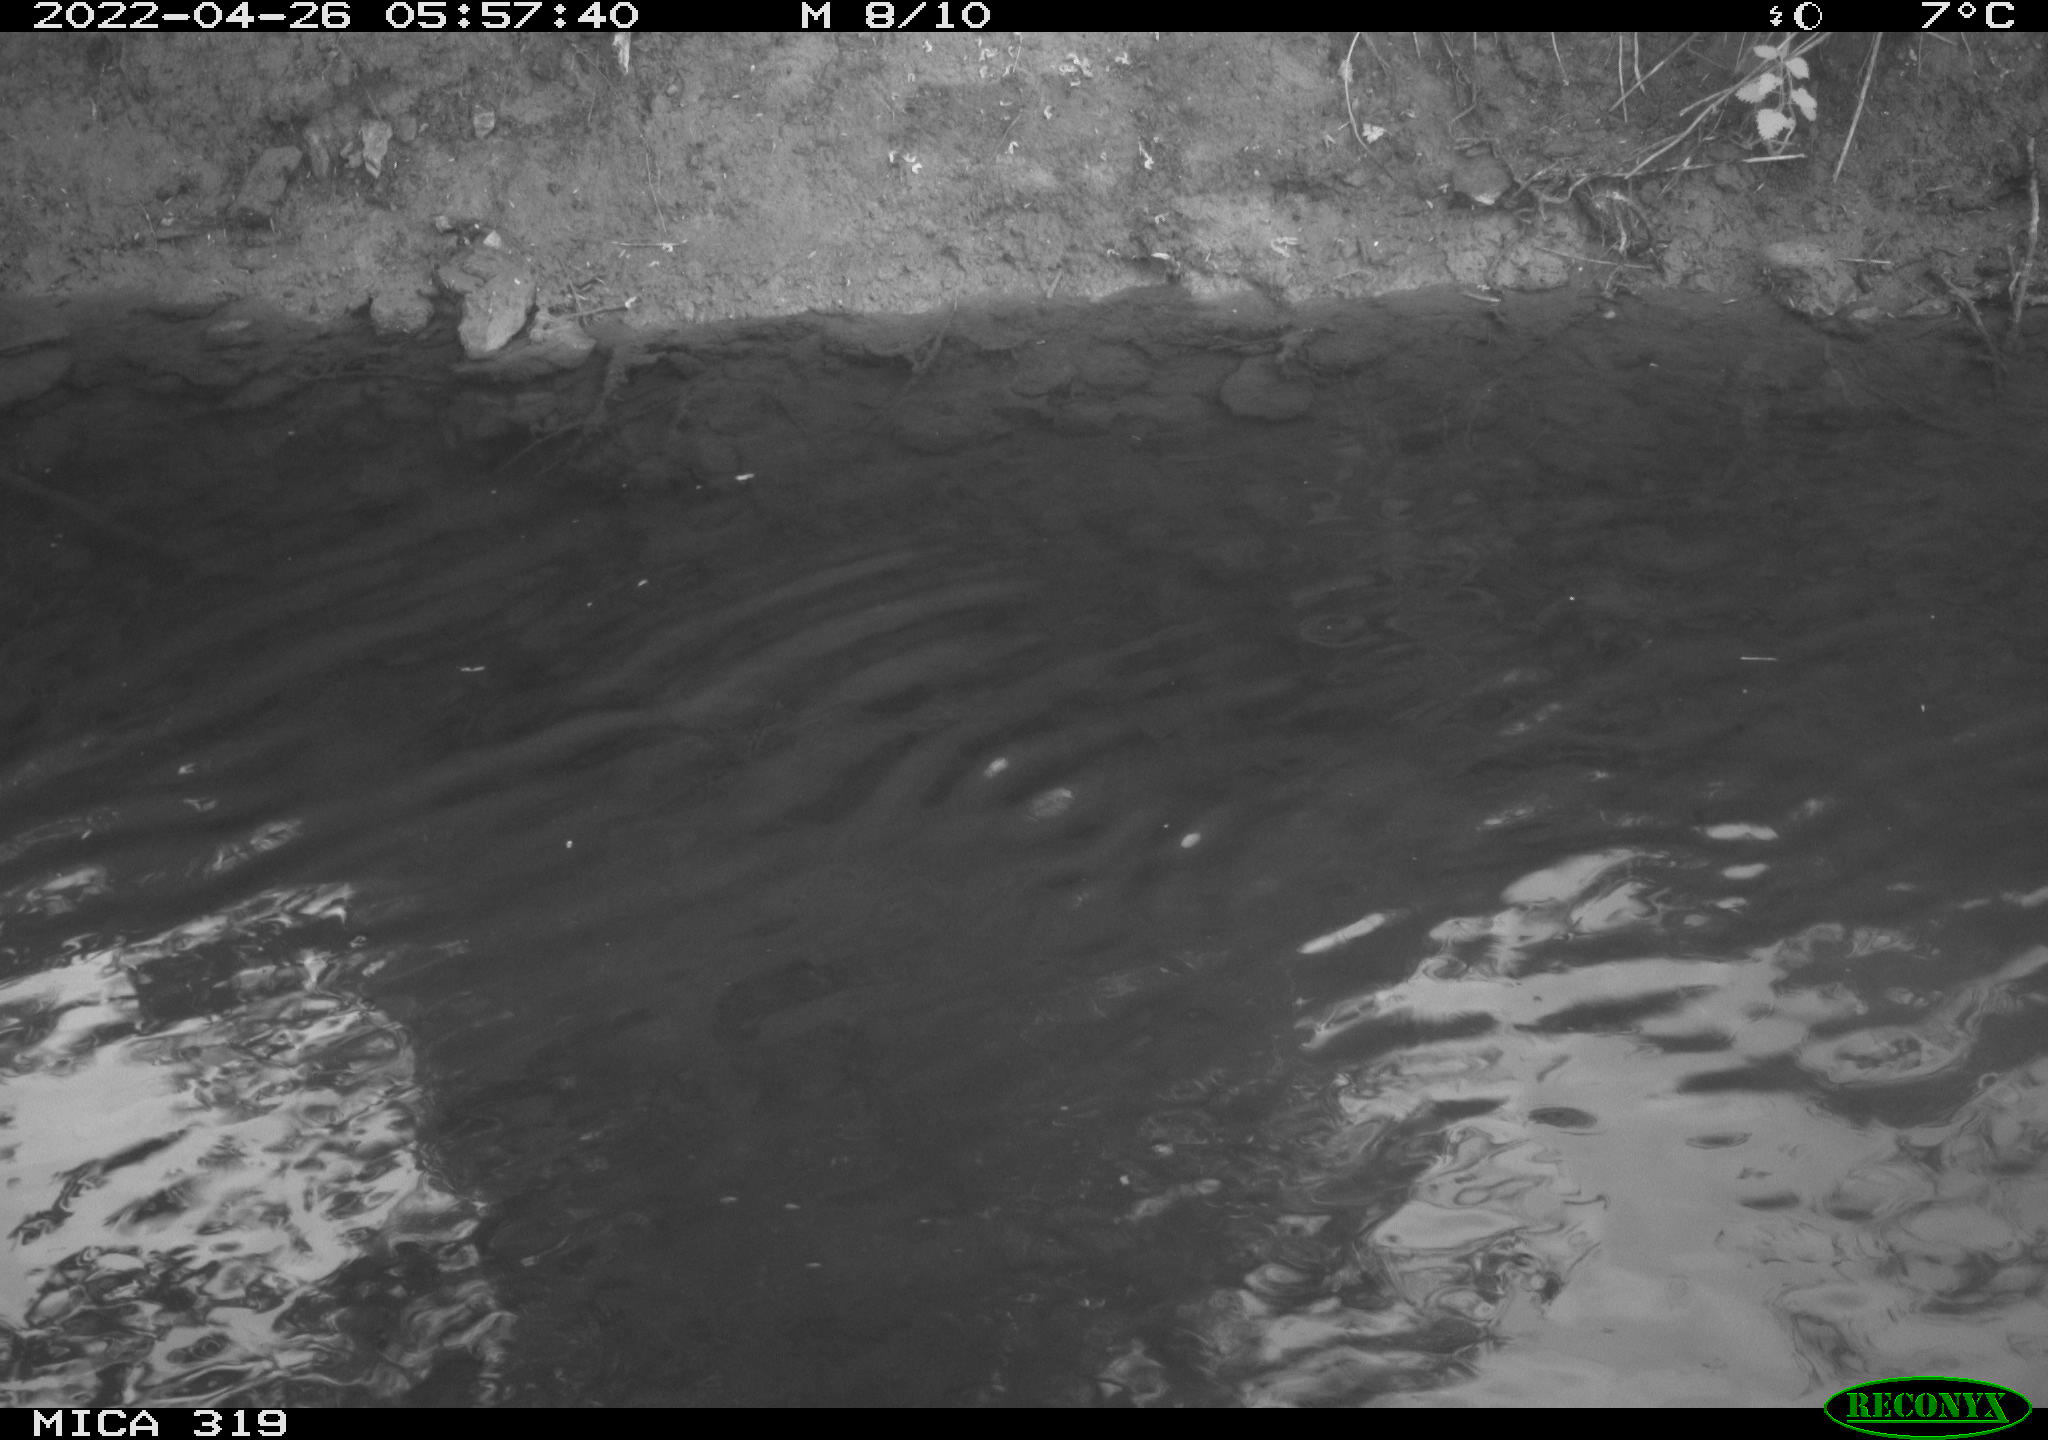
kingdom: Animalia
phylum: Chordata
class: Aves
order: Anseriformes
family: Anatidae
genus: Anas
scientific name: Anas platyrhynchos
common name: Mallard
